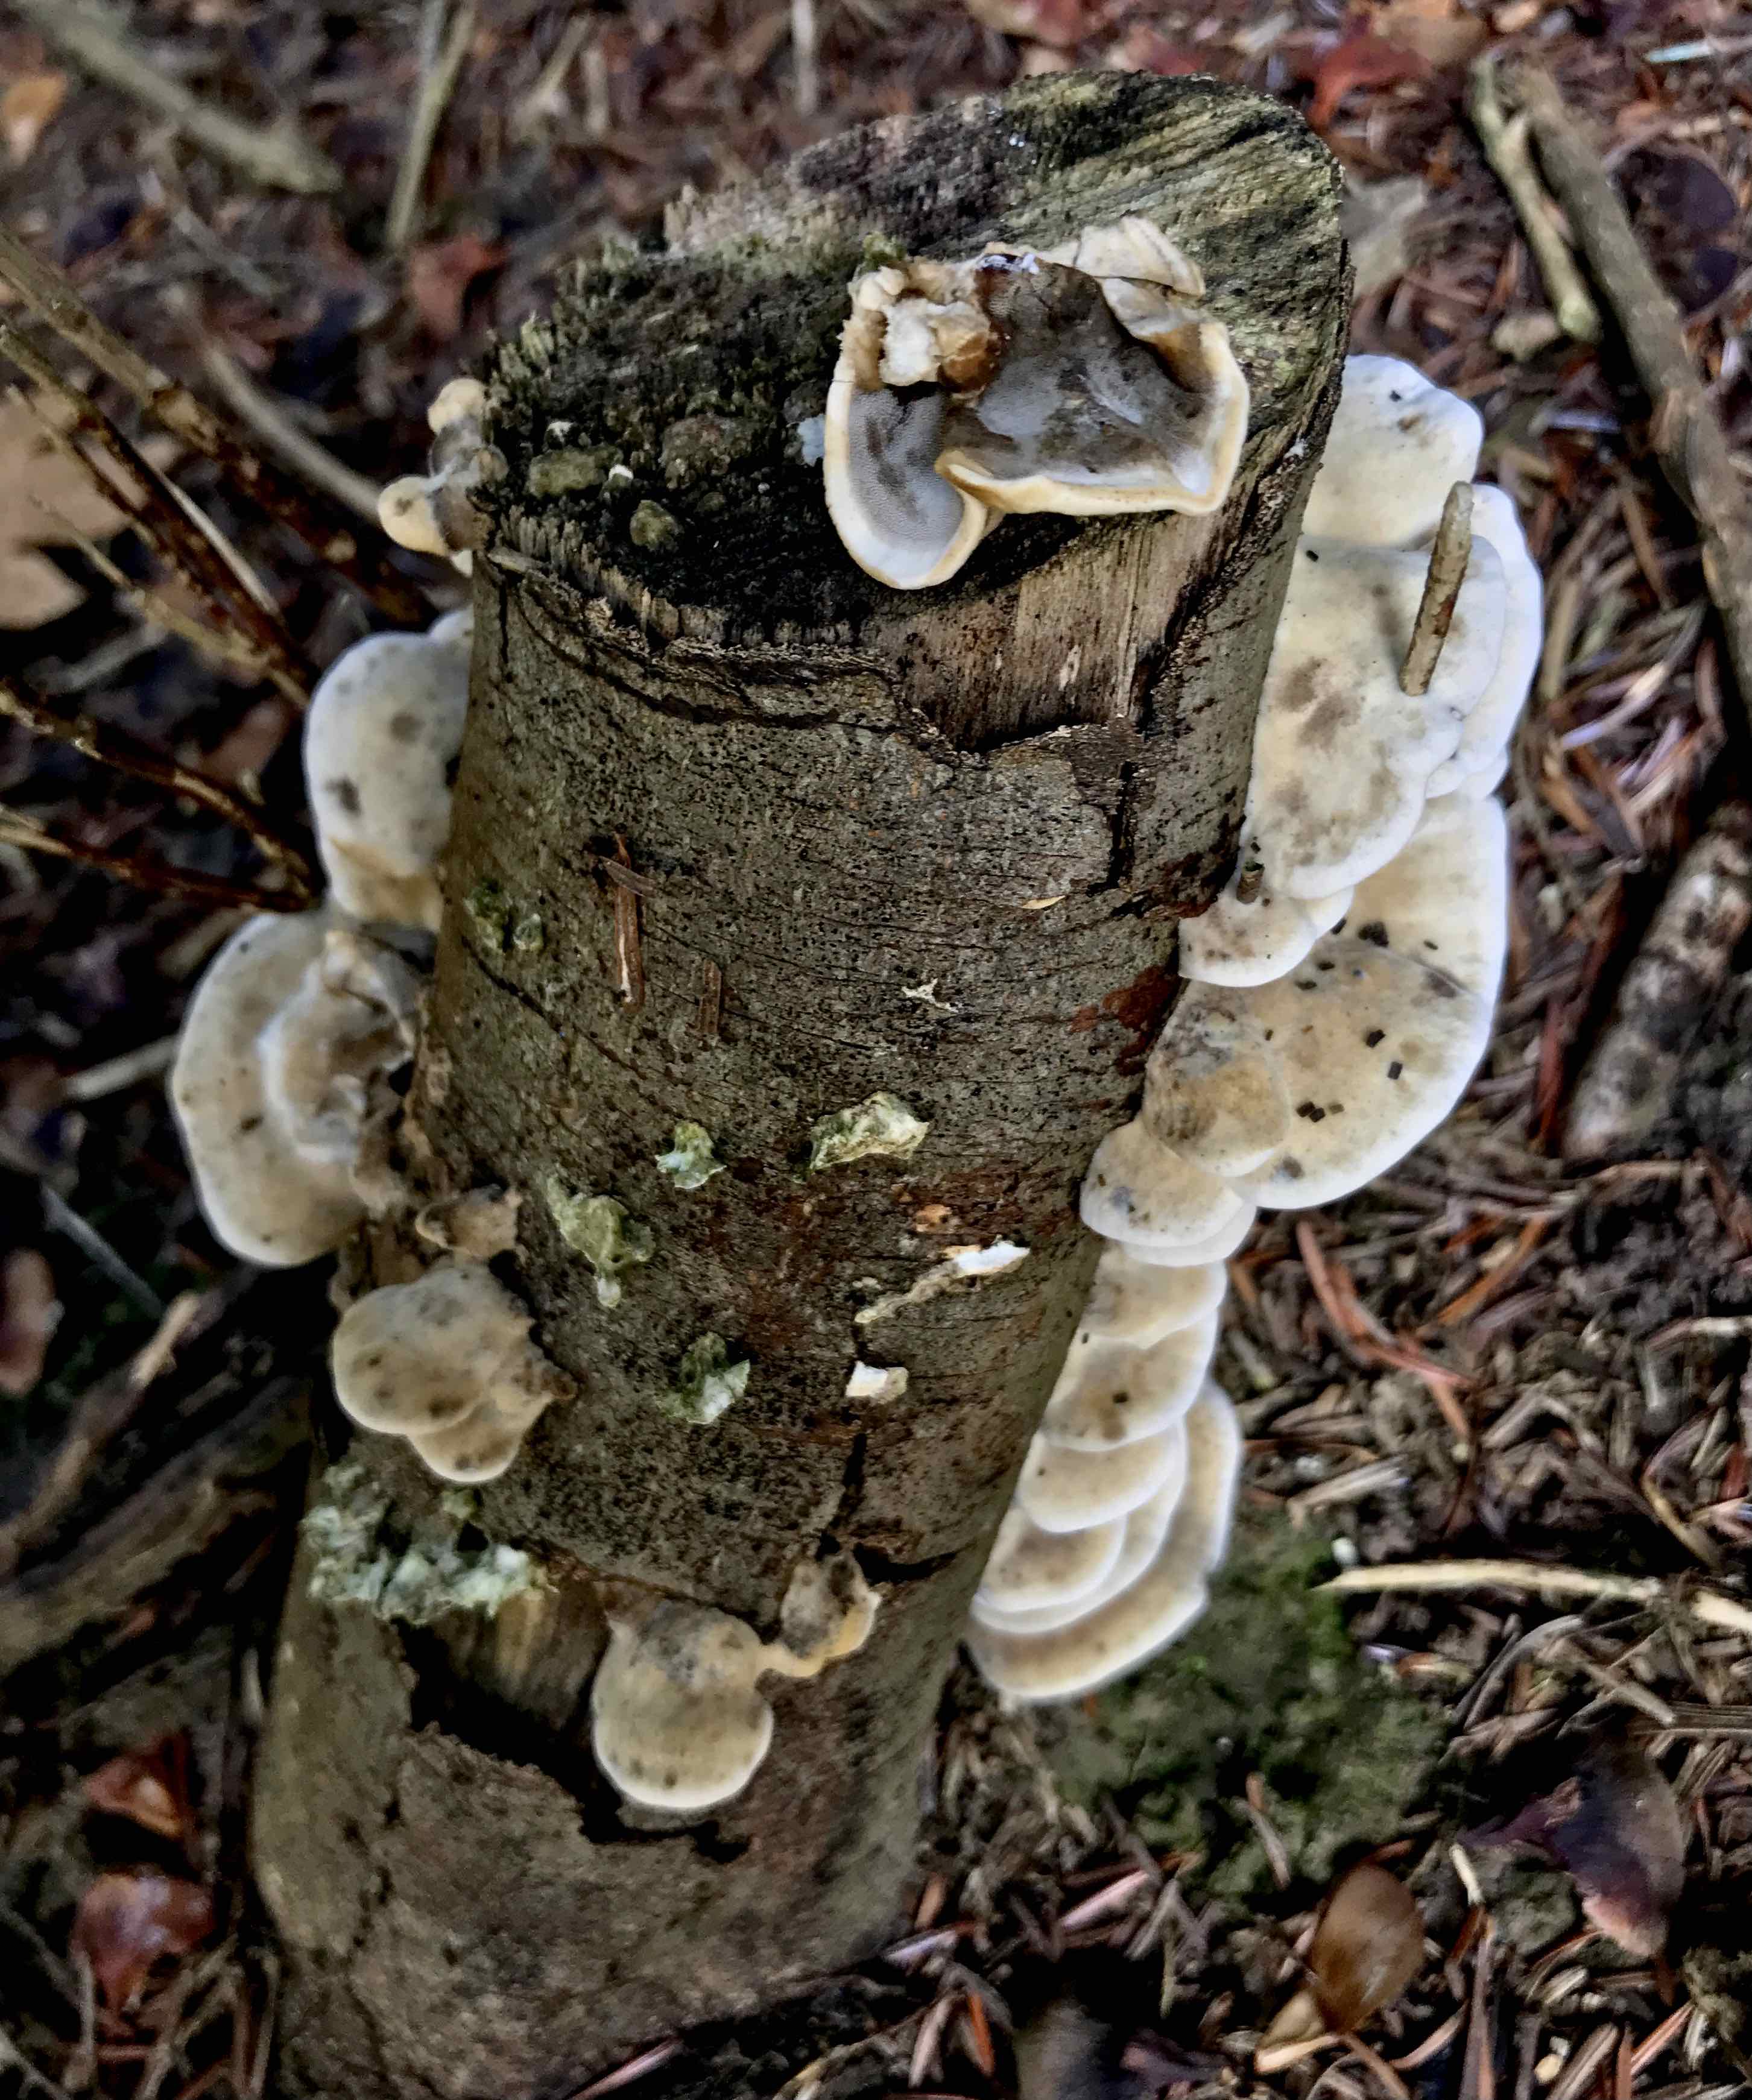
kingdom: Fungi
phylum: Basidiomycota
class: Agaricomycetes
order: Polyporales
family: Phanerochaetaceae
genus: Bjerkandera
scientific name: Bjerkandera adusta
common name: sveden sodporesvamp
